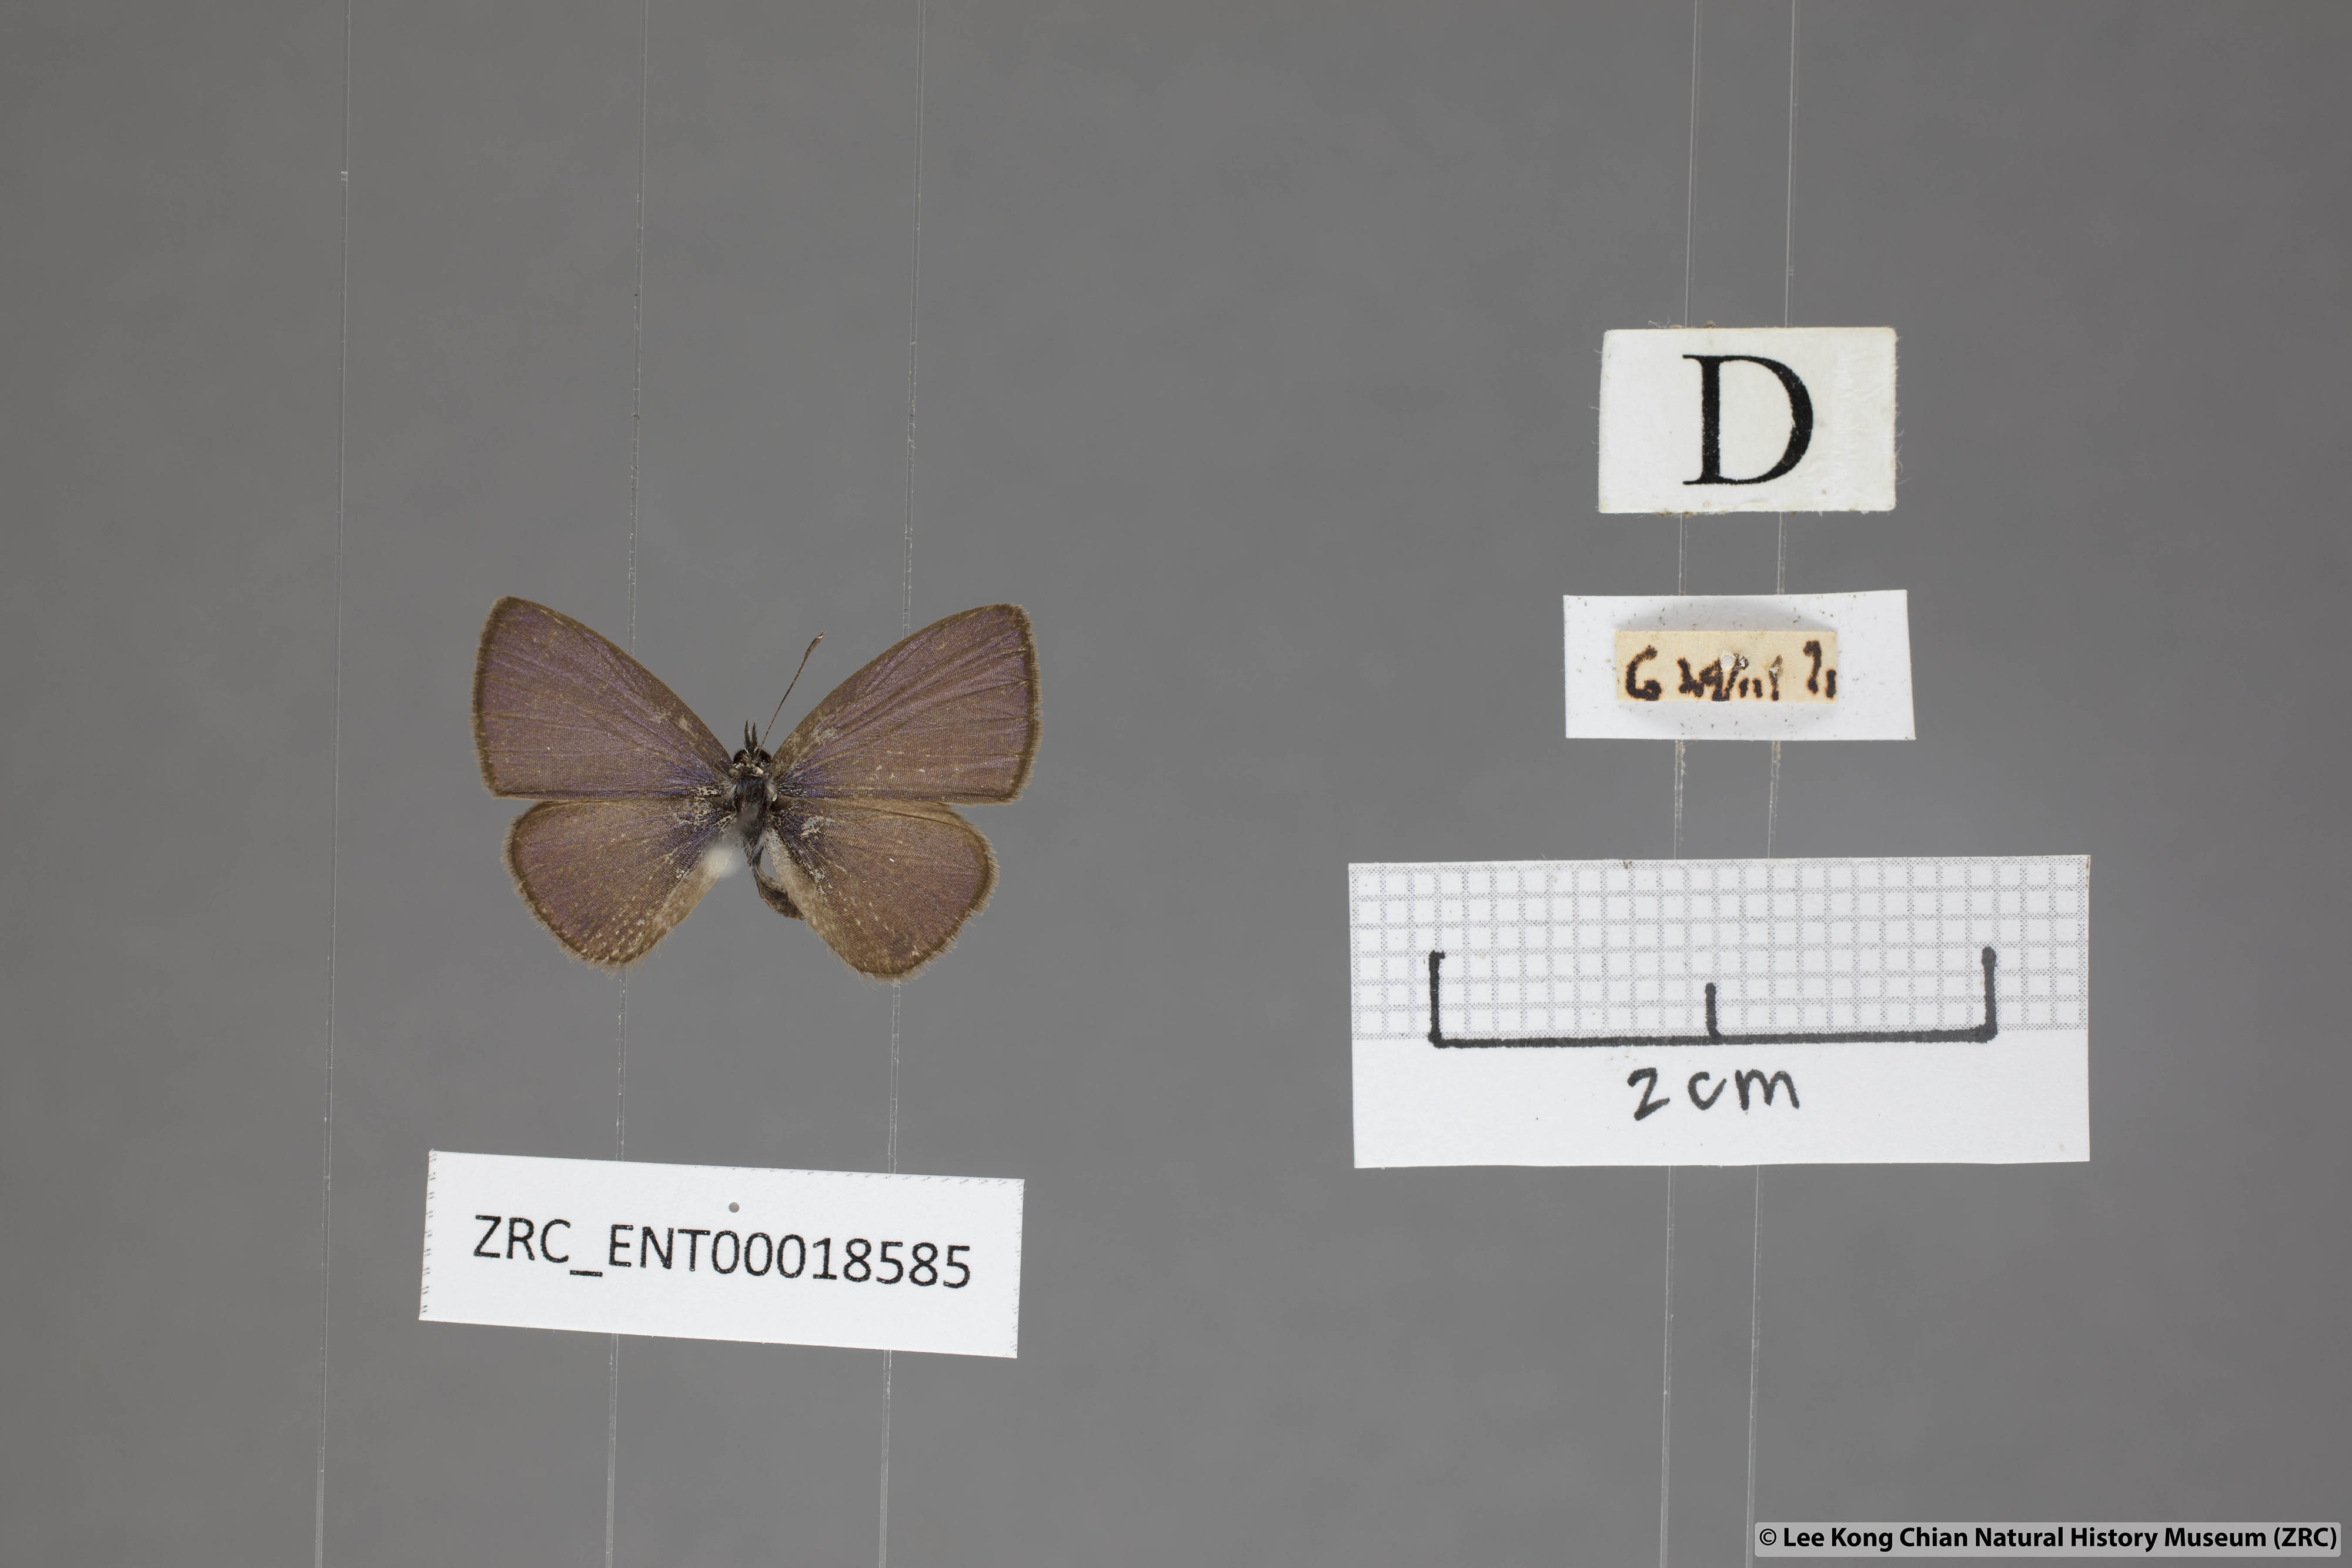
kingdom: Animalia
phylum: Arthropoda
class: Insecta
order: Lepidoptera
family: Lycaenidae
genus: Prosotas
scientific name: Prosotas dubiosa
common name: Tailless lineblue
